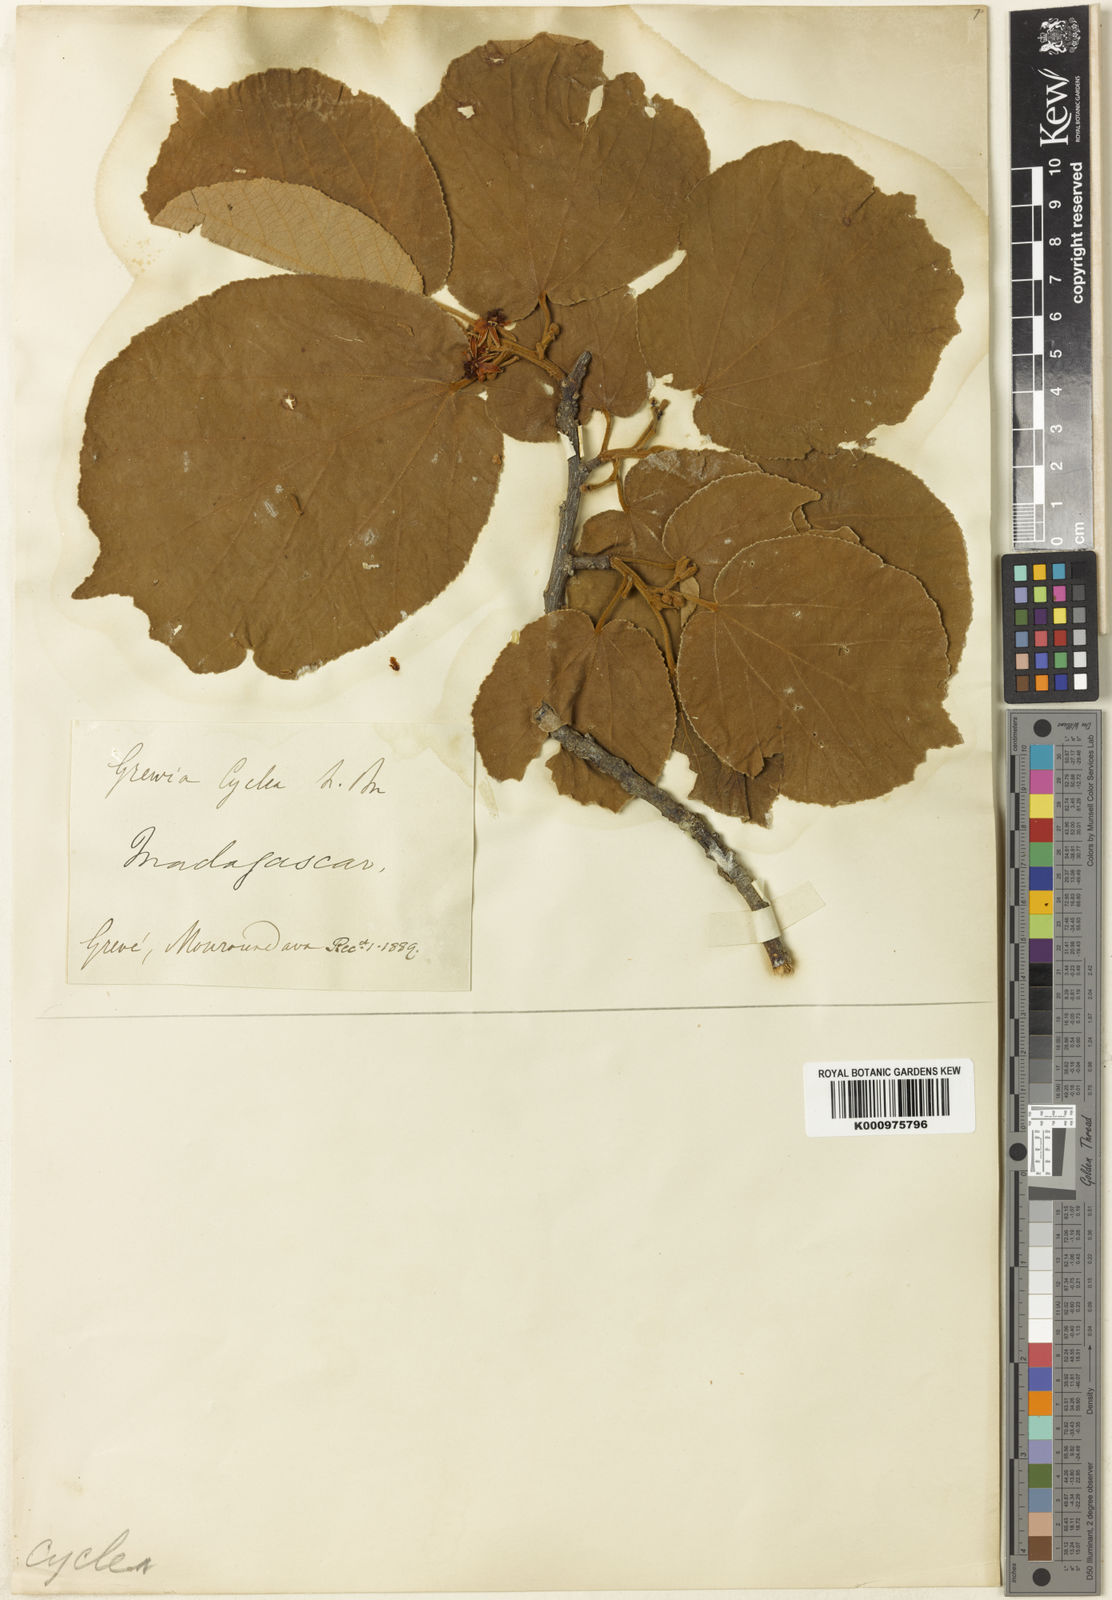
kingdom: Plantae
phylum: Tracheophyta
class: Magnoliopsida
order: Malvales
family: Malvaceae
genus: Grewia
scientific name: Grewia cyclea
